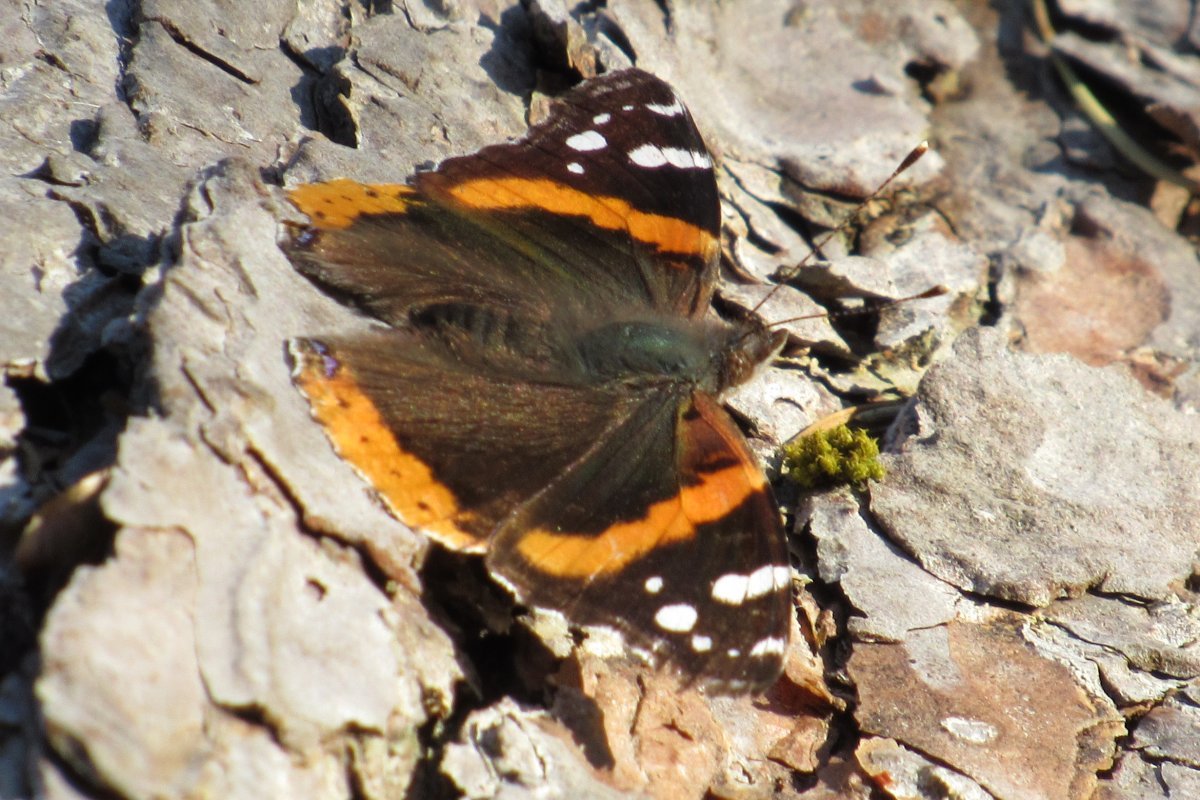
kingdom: Animalia
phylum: Arthropoda
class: Insecta
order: Lepidoptera
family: Nymphalidae
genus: Vanessa
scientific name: Vanessa atalanta
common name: Red Admiral
